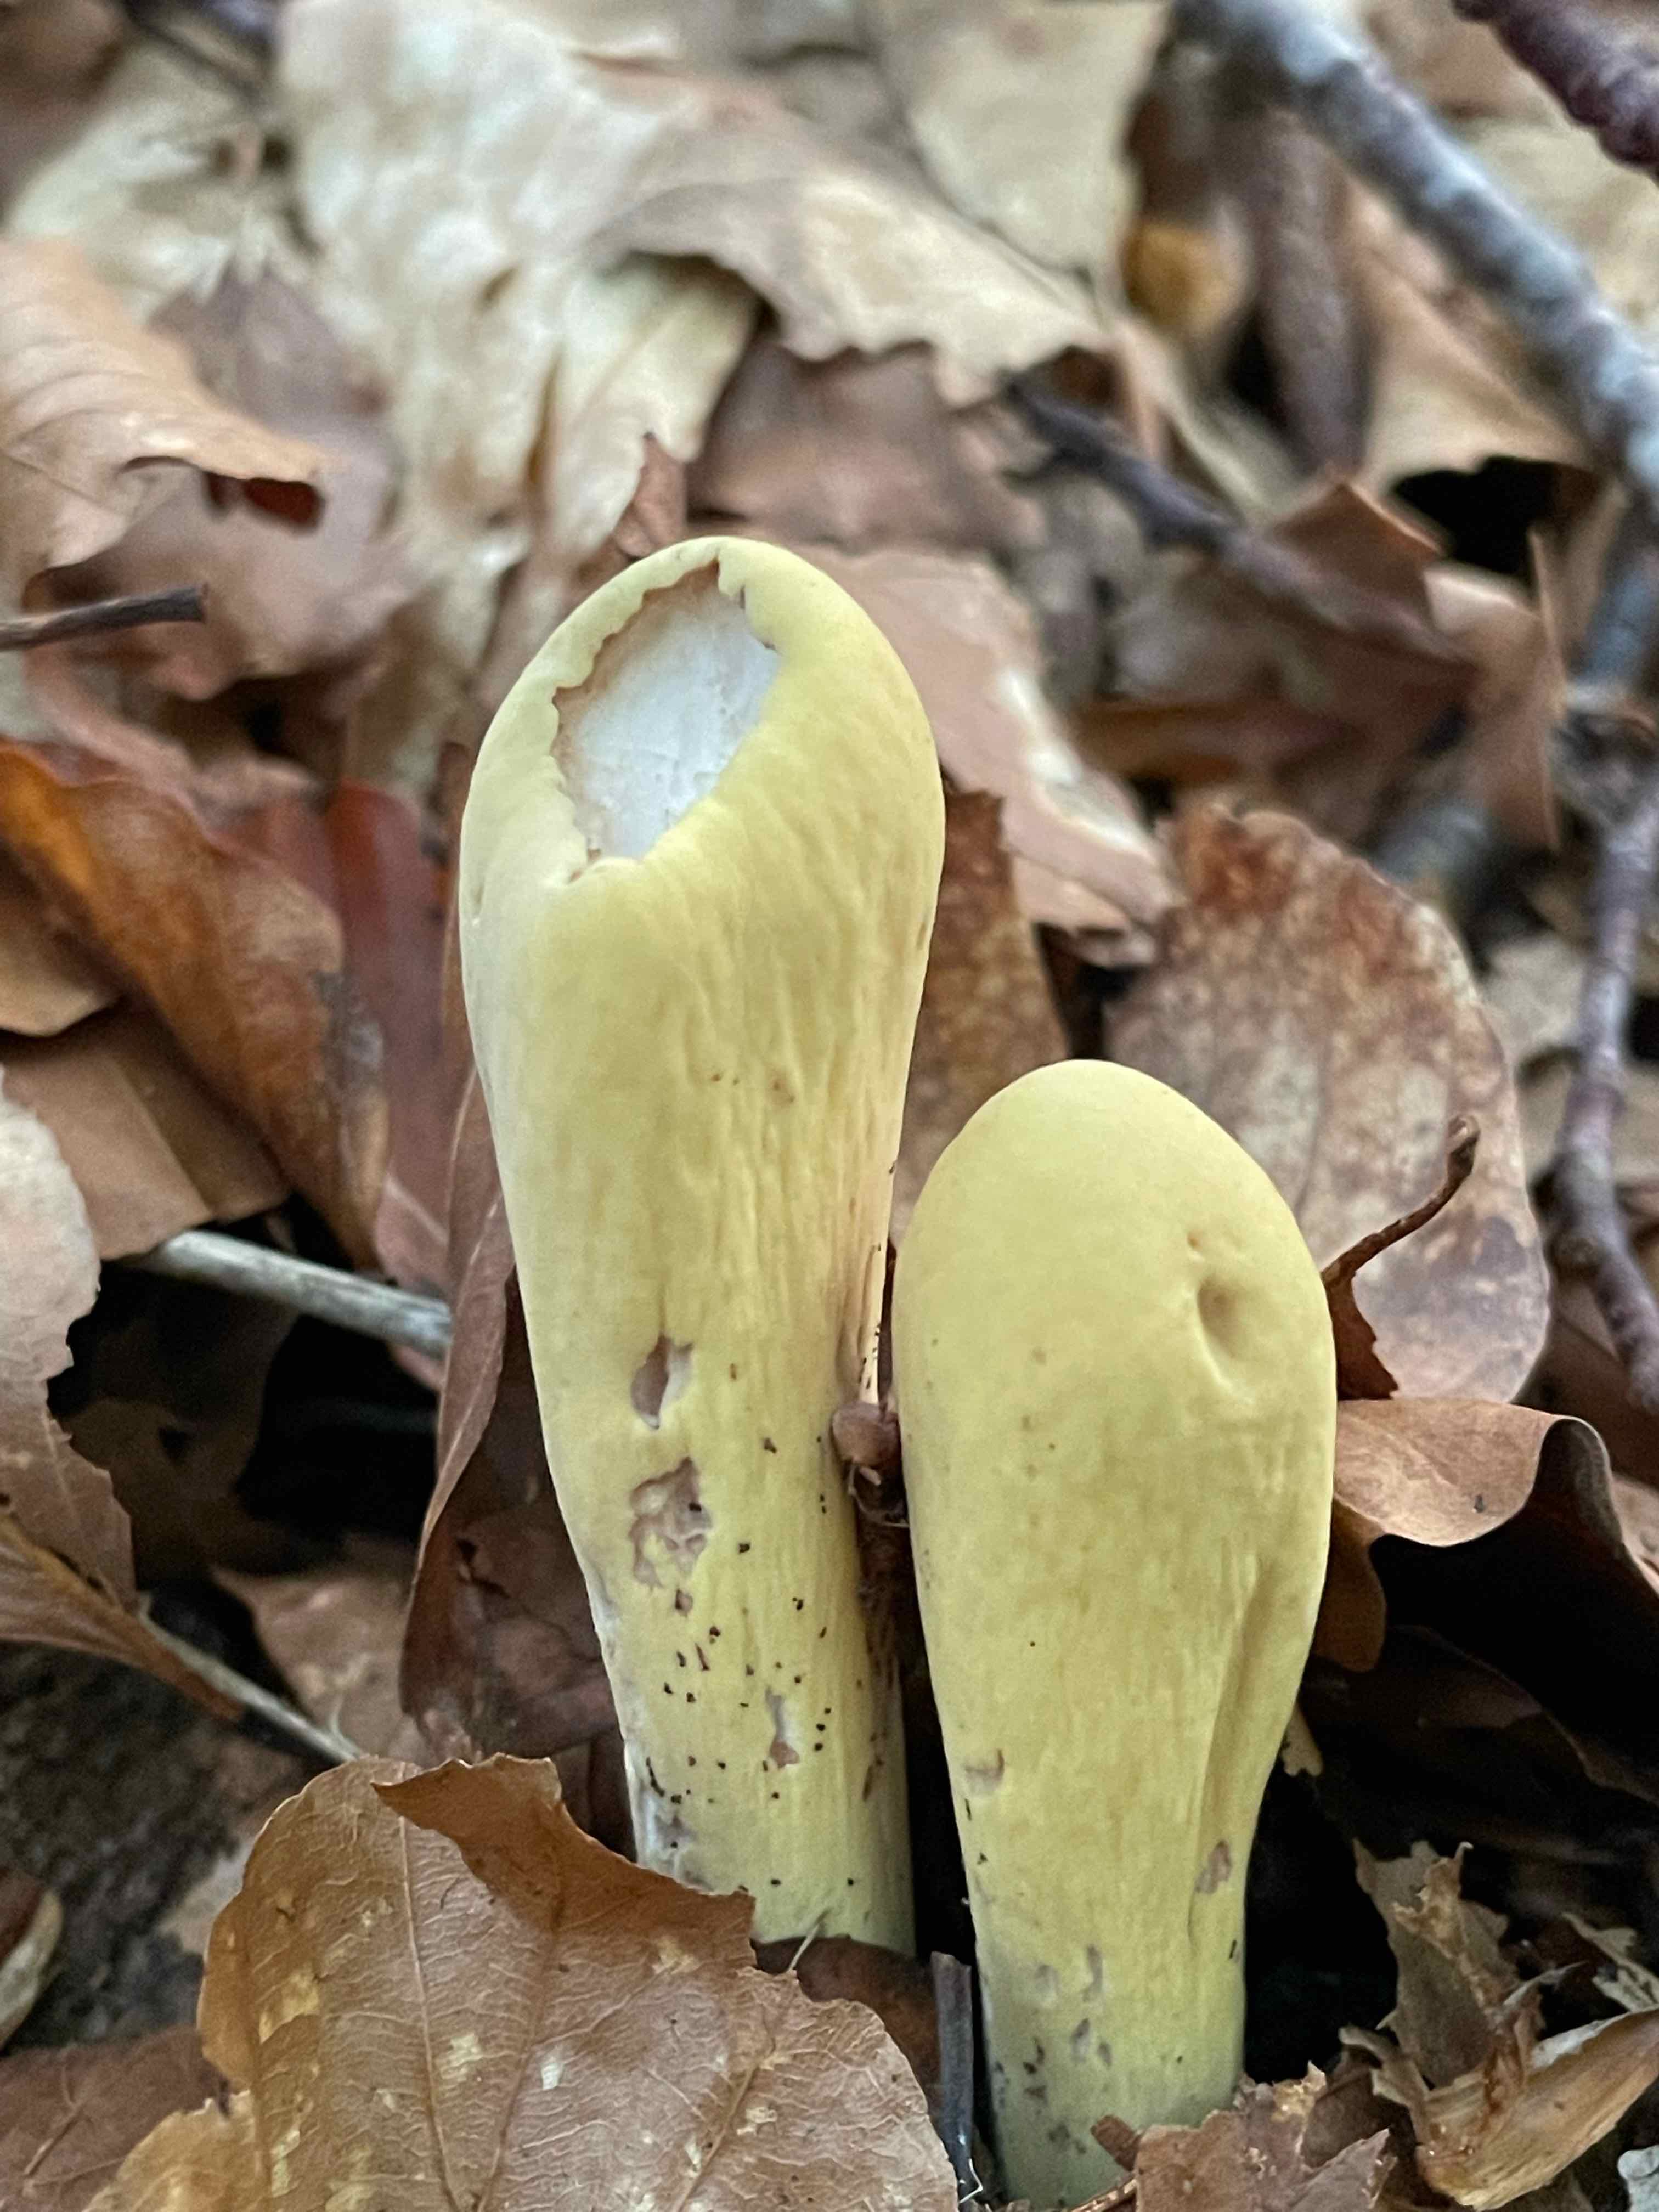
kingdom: Fungi
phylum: Basidiomycota
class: Agaricomycetes
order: Gomphales
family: Clavariadelphaceae
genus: Clavariadelphus
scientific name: Clavariadelphus pistillaris
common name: herkules-kæmpekølle
